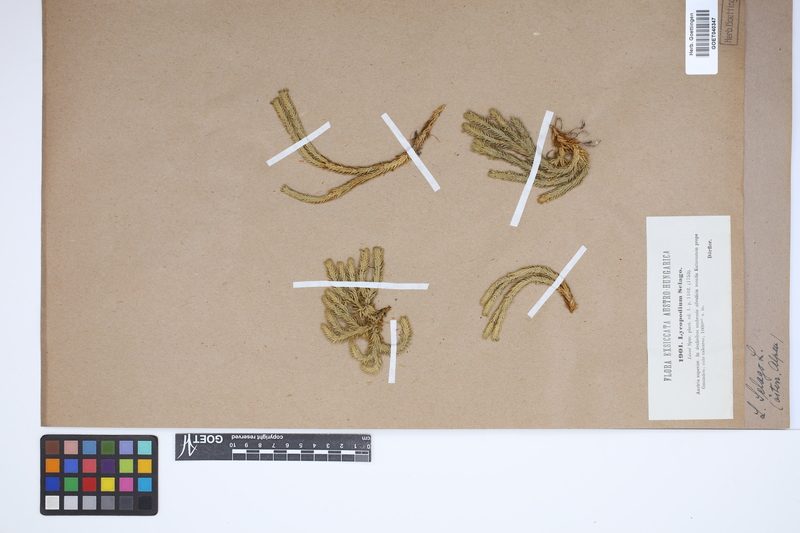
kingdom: Plantae
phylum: Tracheophyta
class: Lycopodiopsida
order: Lycopodiales
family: Lycopodiaceae
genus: Huperzia
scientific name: Huperzia selago
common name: Northern firmoss
